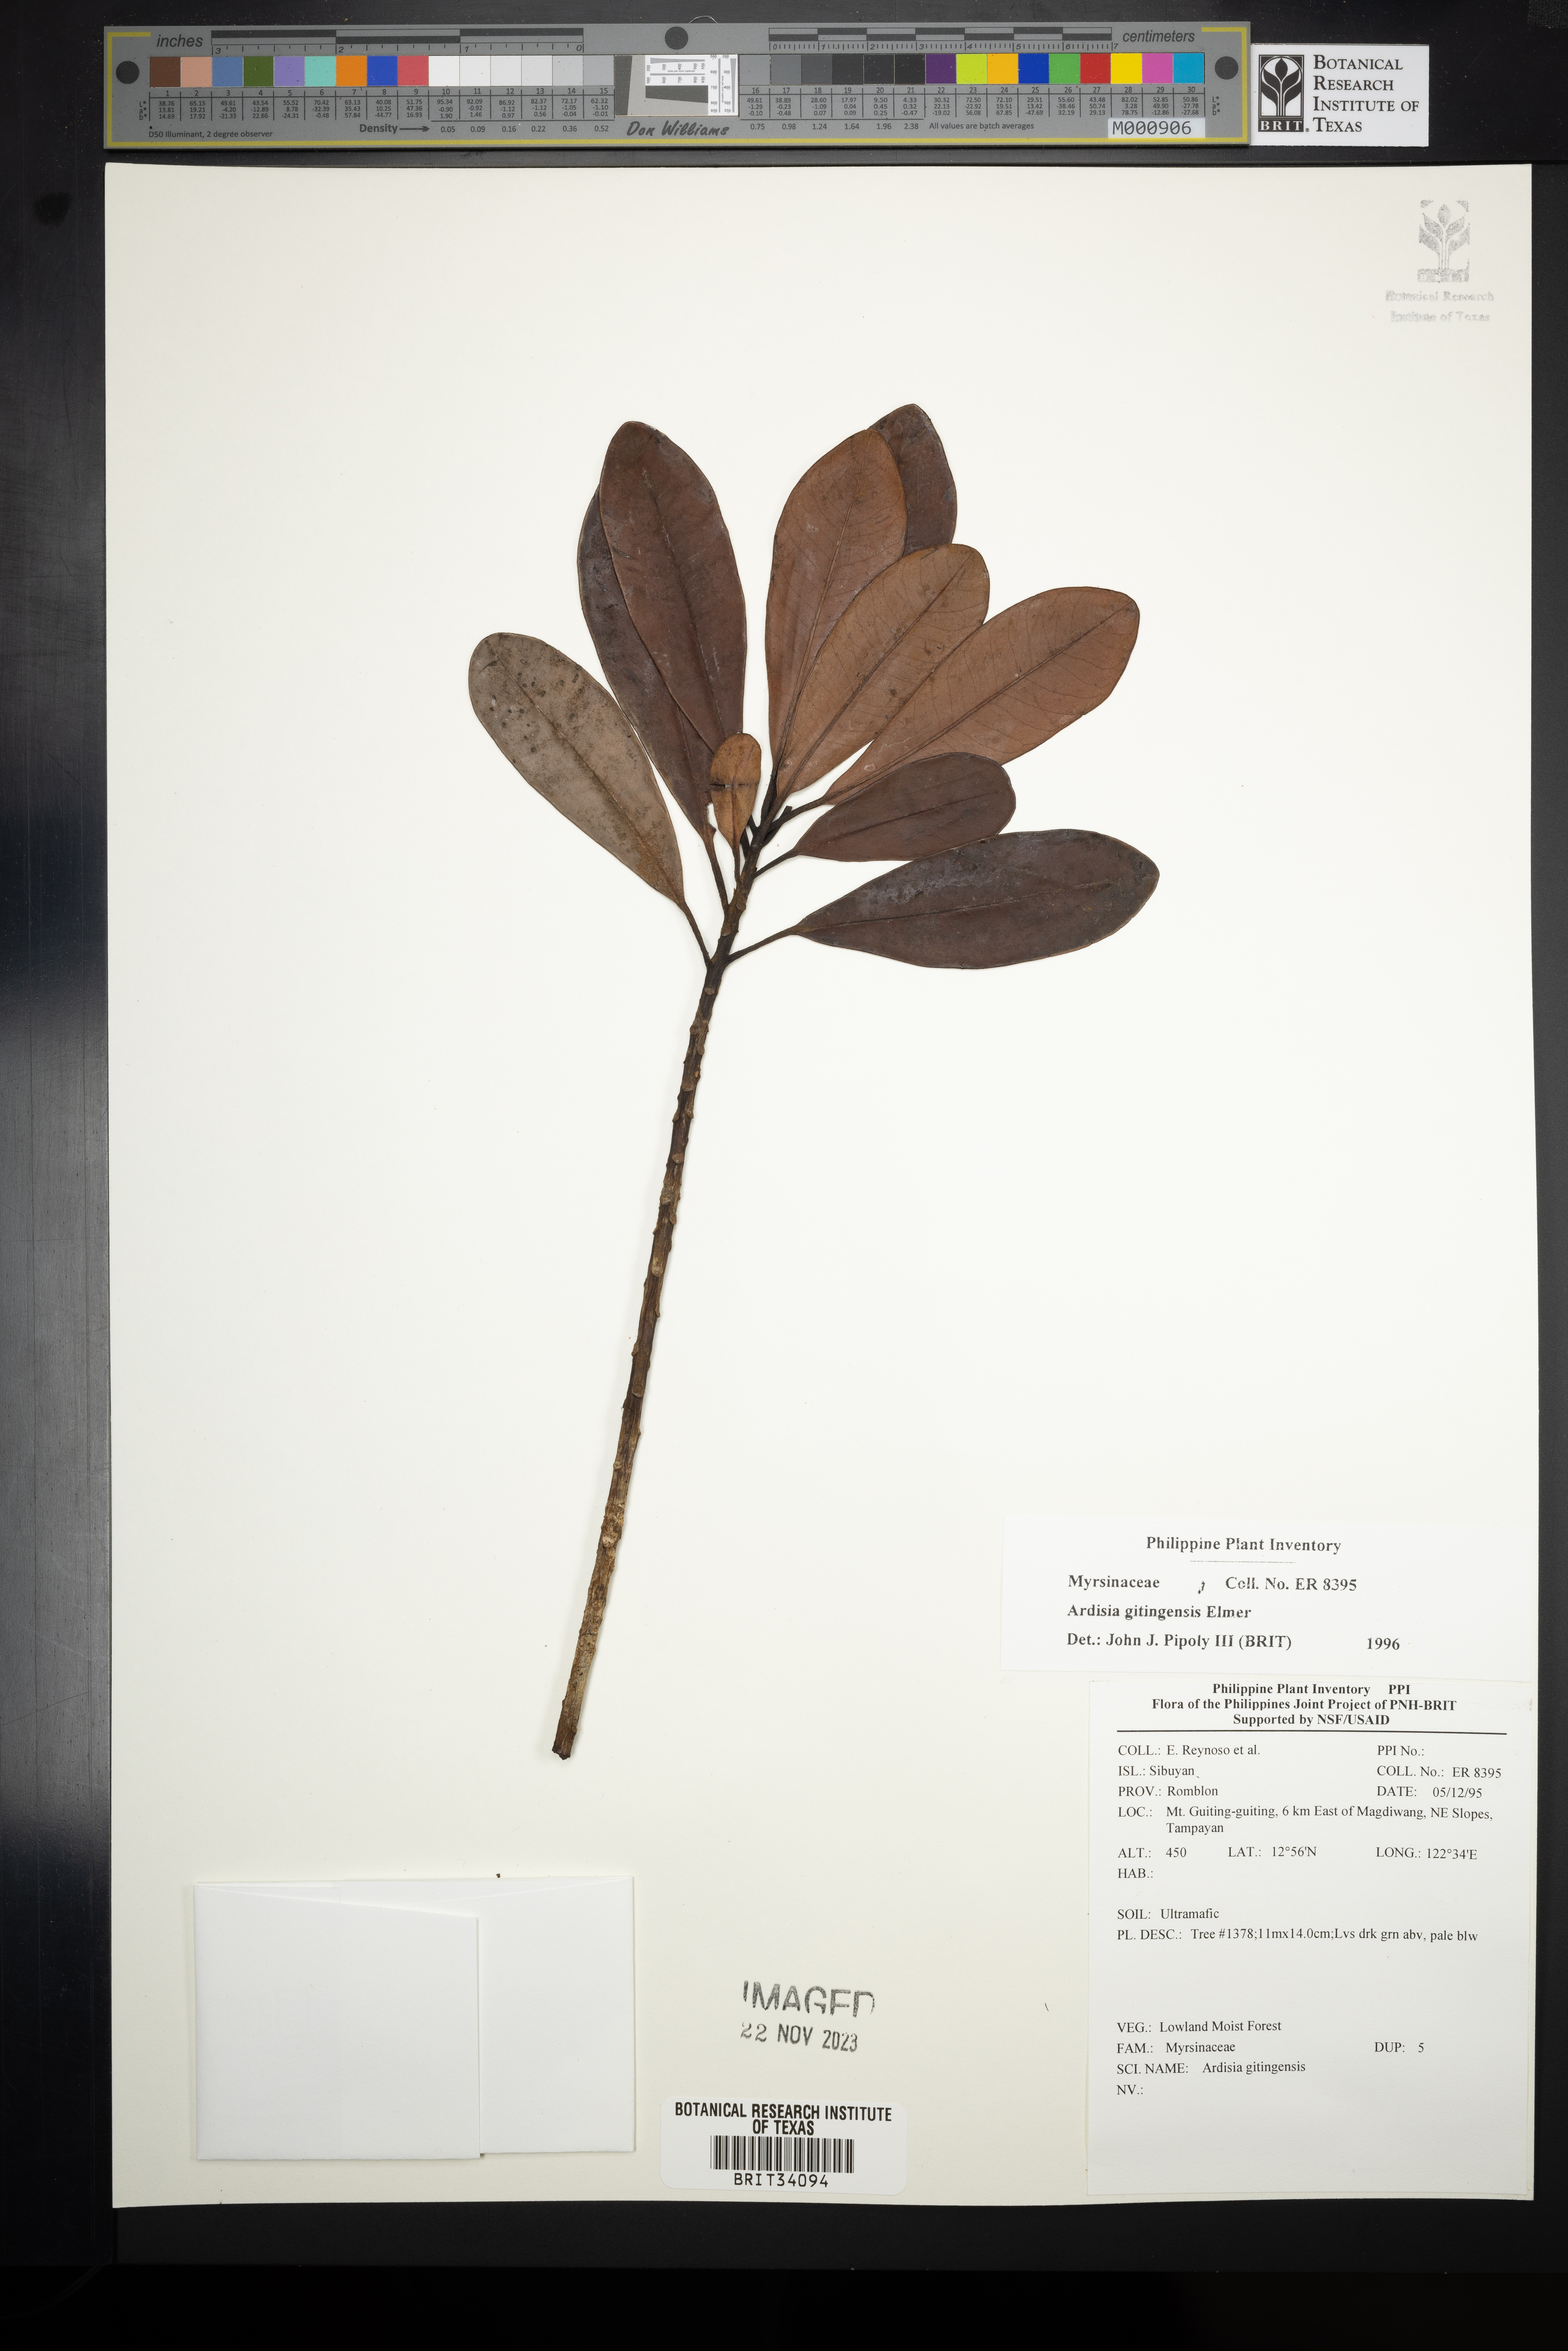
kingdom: Plantae
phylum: Tracheophyta
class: Magnoliopsida
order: Ericales
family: Primulaceae
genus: Ardisia
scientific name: Ardisia darlingii
